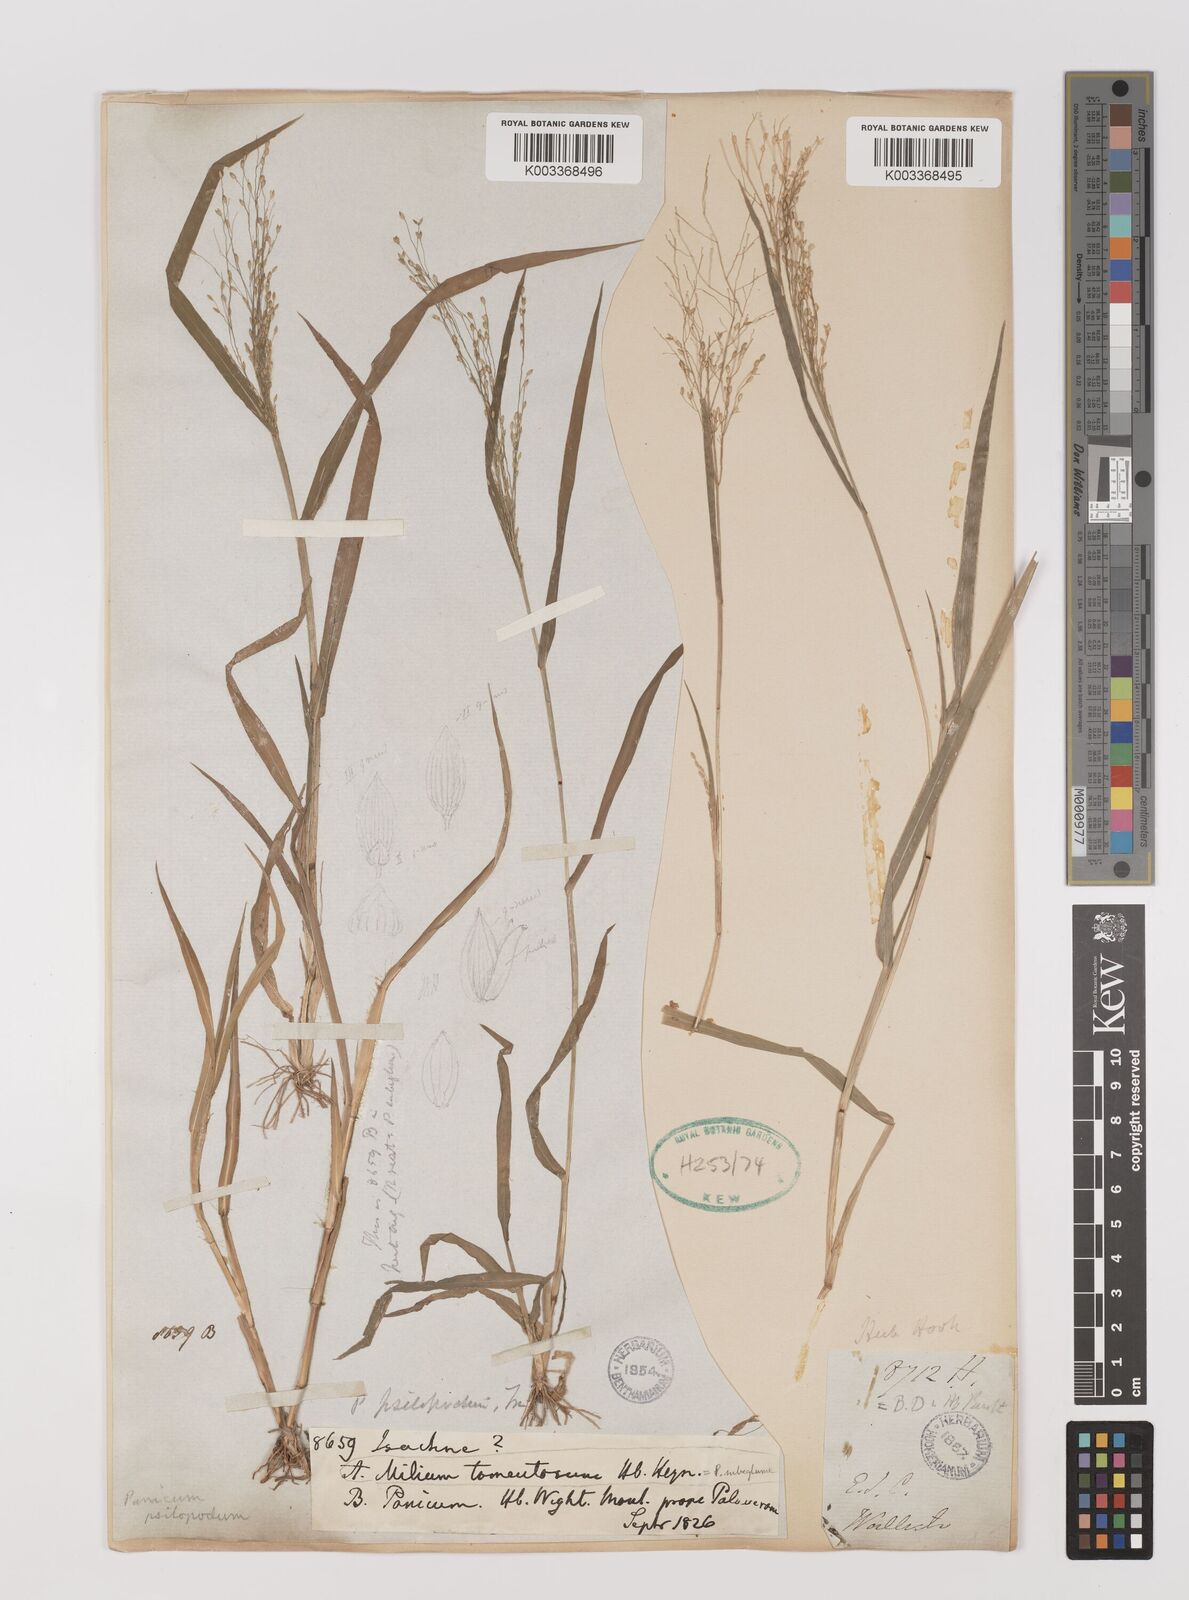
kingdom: Plantae
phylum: Tracheophyta
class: Liliopsida
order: Poales
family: Poaceae
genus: Panicum
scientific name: Panicum sumatrense
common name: Little millet
